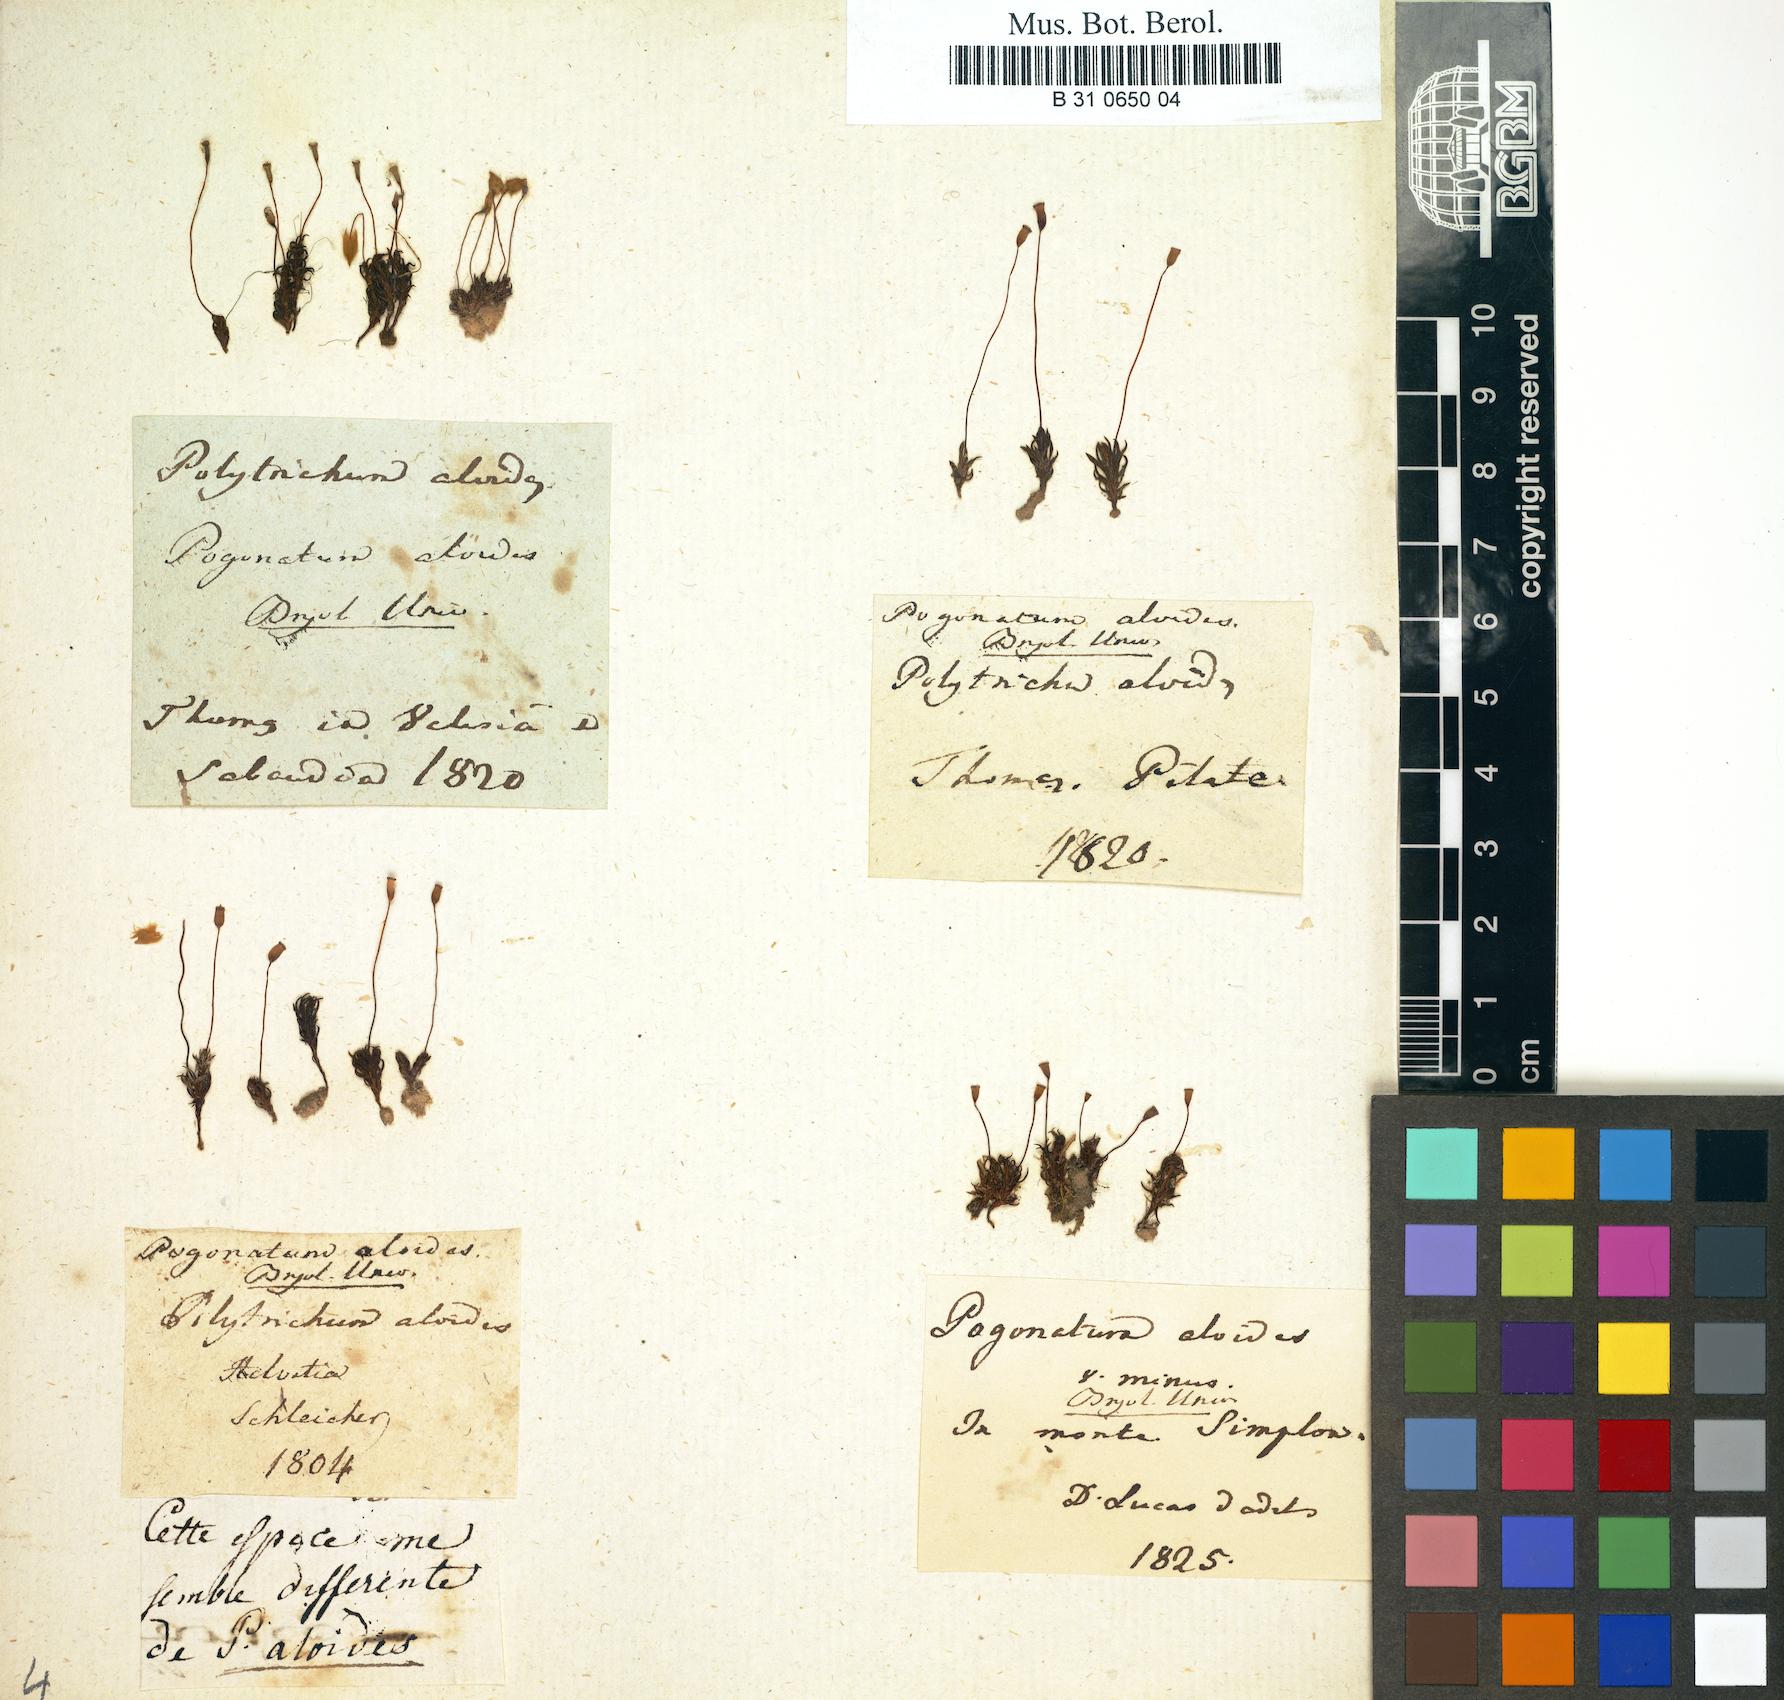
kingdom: Plantae
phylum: Bryophyta
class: Polytrichopsida
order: Polytrichales
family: Polytrichaceae
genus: Pogonatum
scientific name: Pogonatum aloides
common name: Aloe haircap
